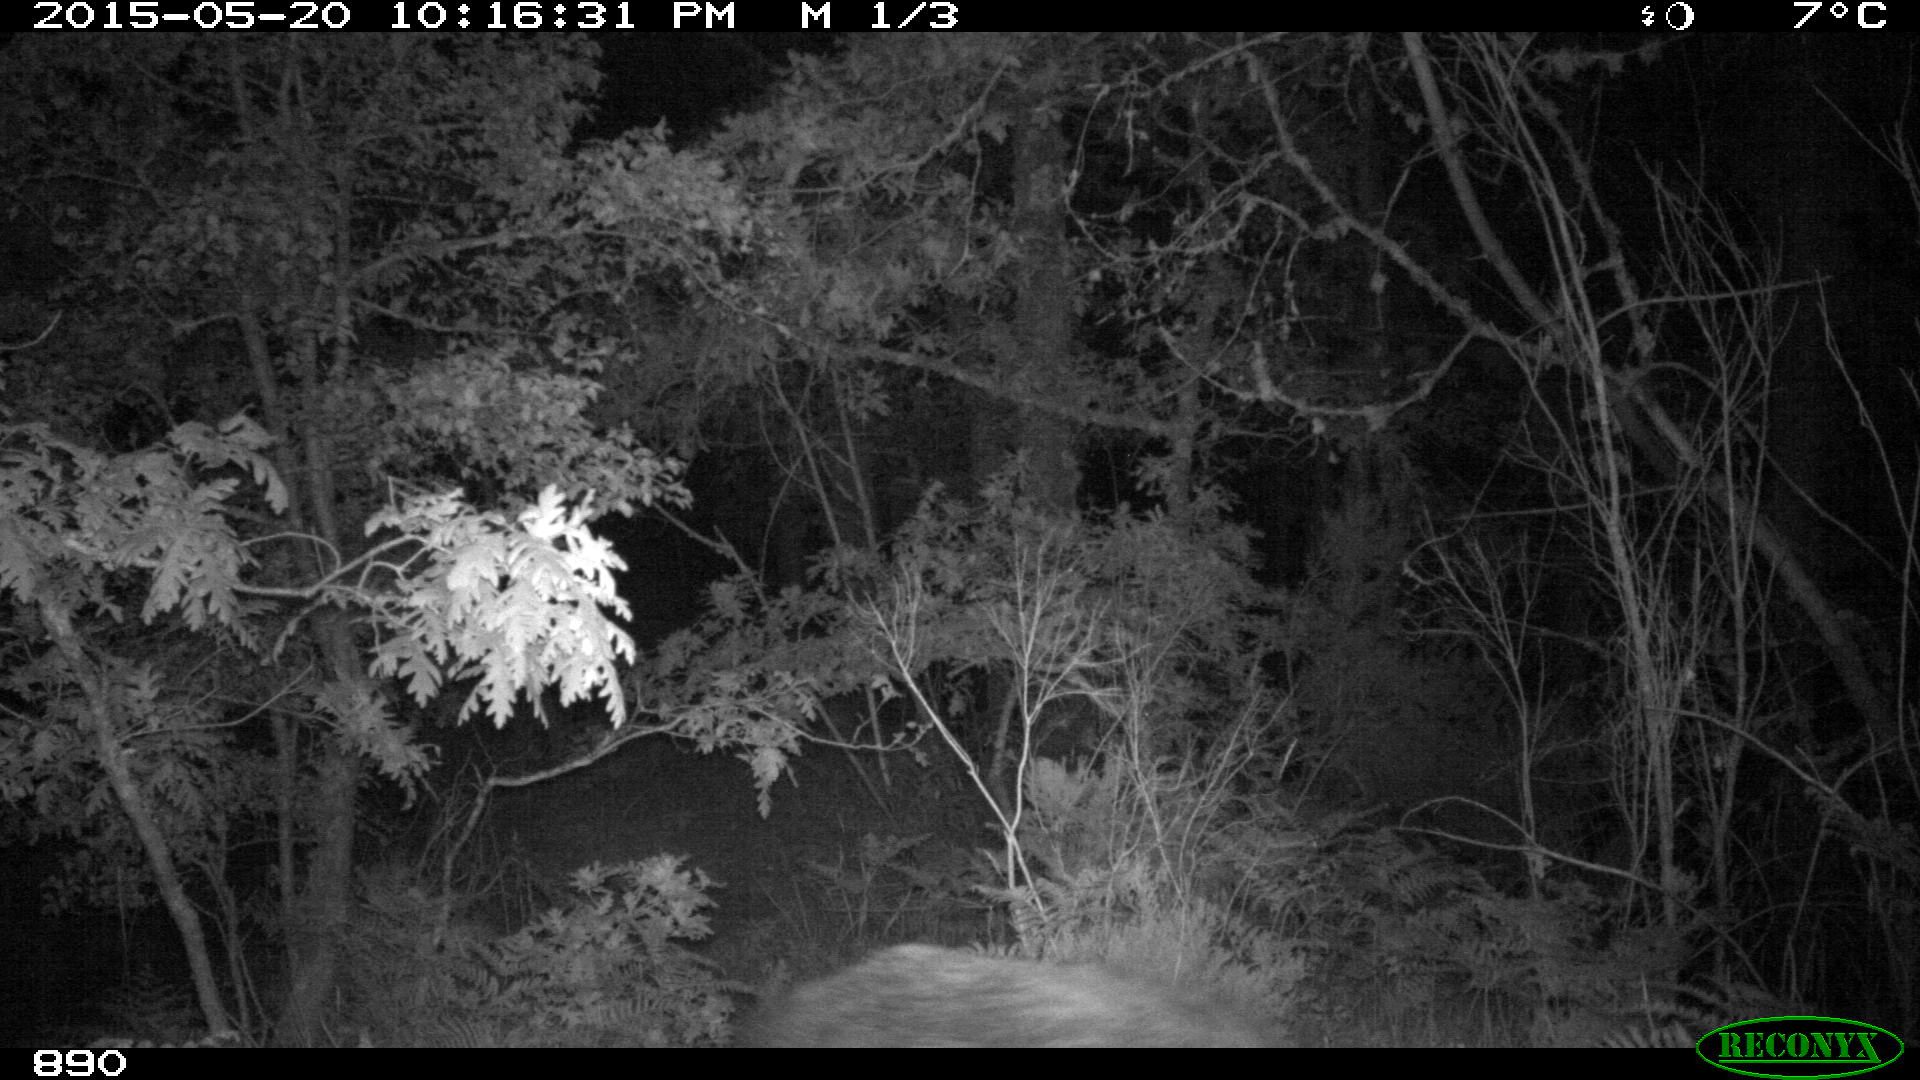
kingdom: Animalia
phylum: Chordata
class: Mammalia
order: Artiodactyla
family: Suidae
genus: Sus
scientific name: Sus scrofa
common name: Wild boar
